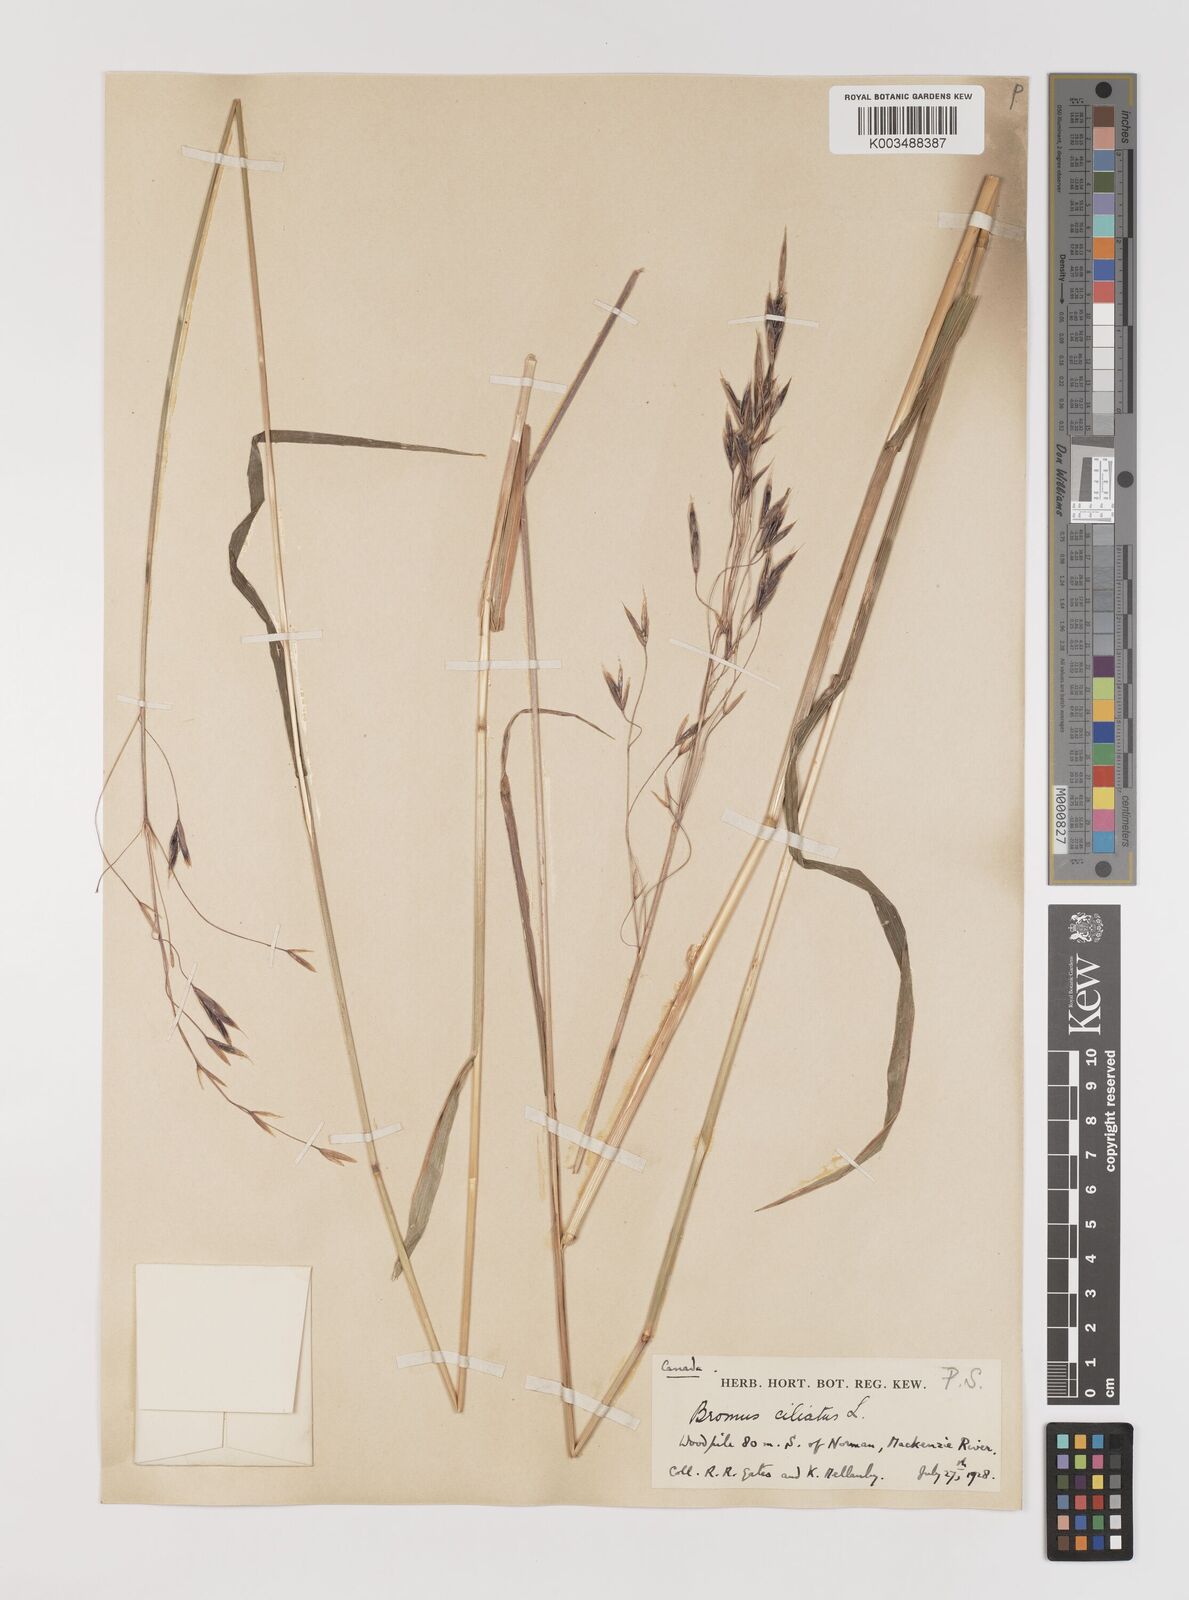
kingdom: Plantae
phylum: Tracheophyta
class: Liliopsida
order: Poales
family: Poaceae
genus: Bromus
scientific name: Bromus ciliatus
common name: Fringe brome
